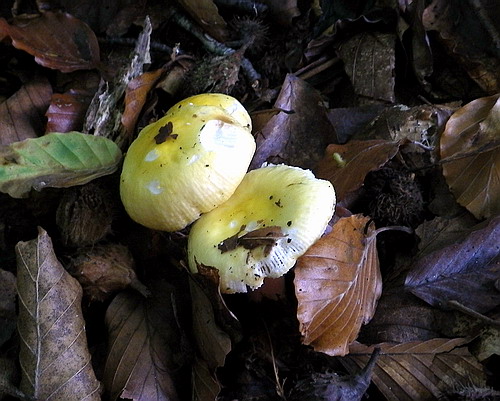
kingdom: Fungi
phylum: Basidiomycota
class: Agaricomycetes
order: Russulales
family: Russulaceae
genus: Russula
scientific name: Russula solaris
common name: sol-skørhat
